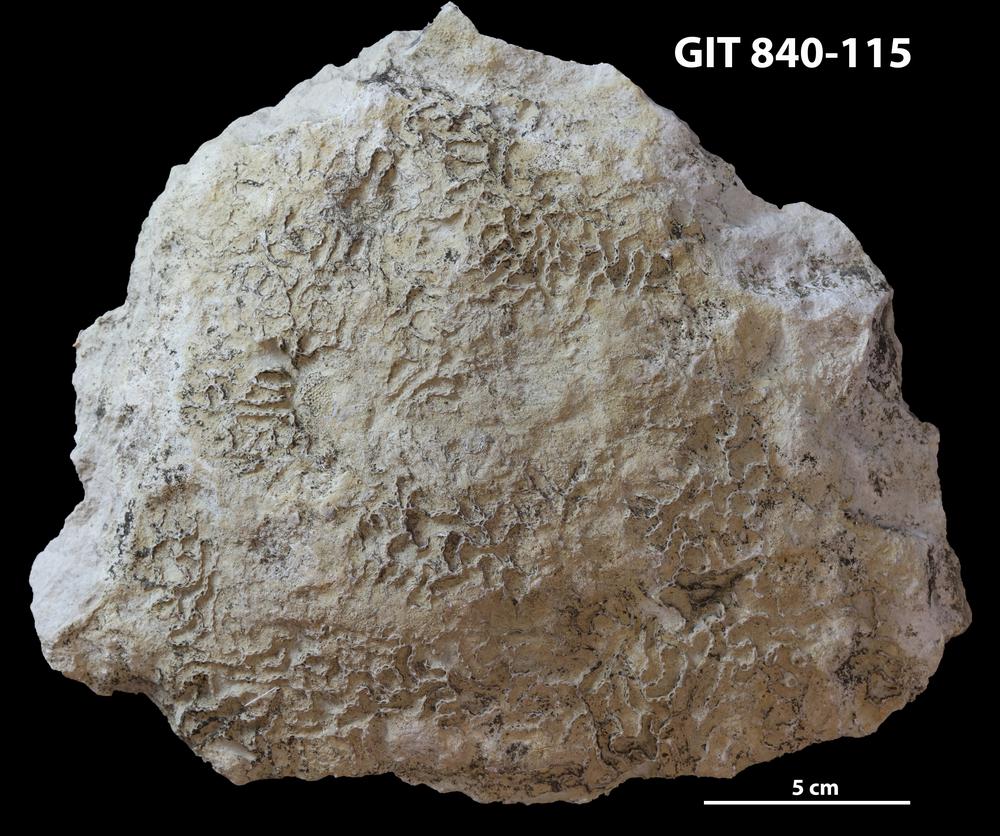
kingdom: Animalia
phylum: Cnidaria
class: Anthozoa
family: Cateniporidae
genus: Catenipora
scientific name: Catenipora
